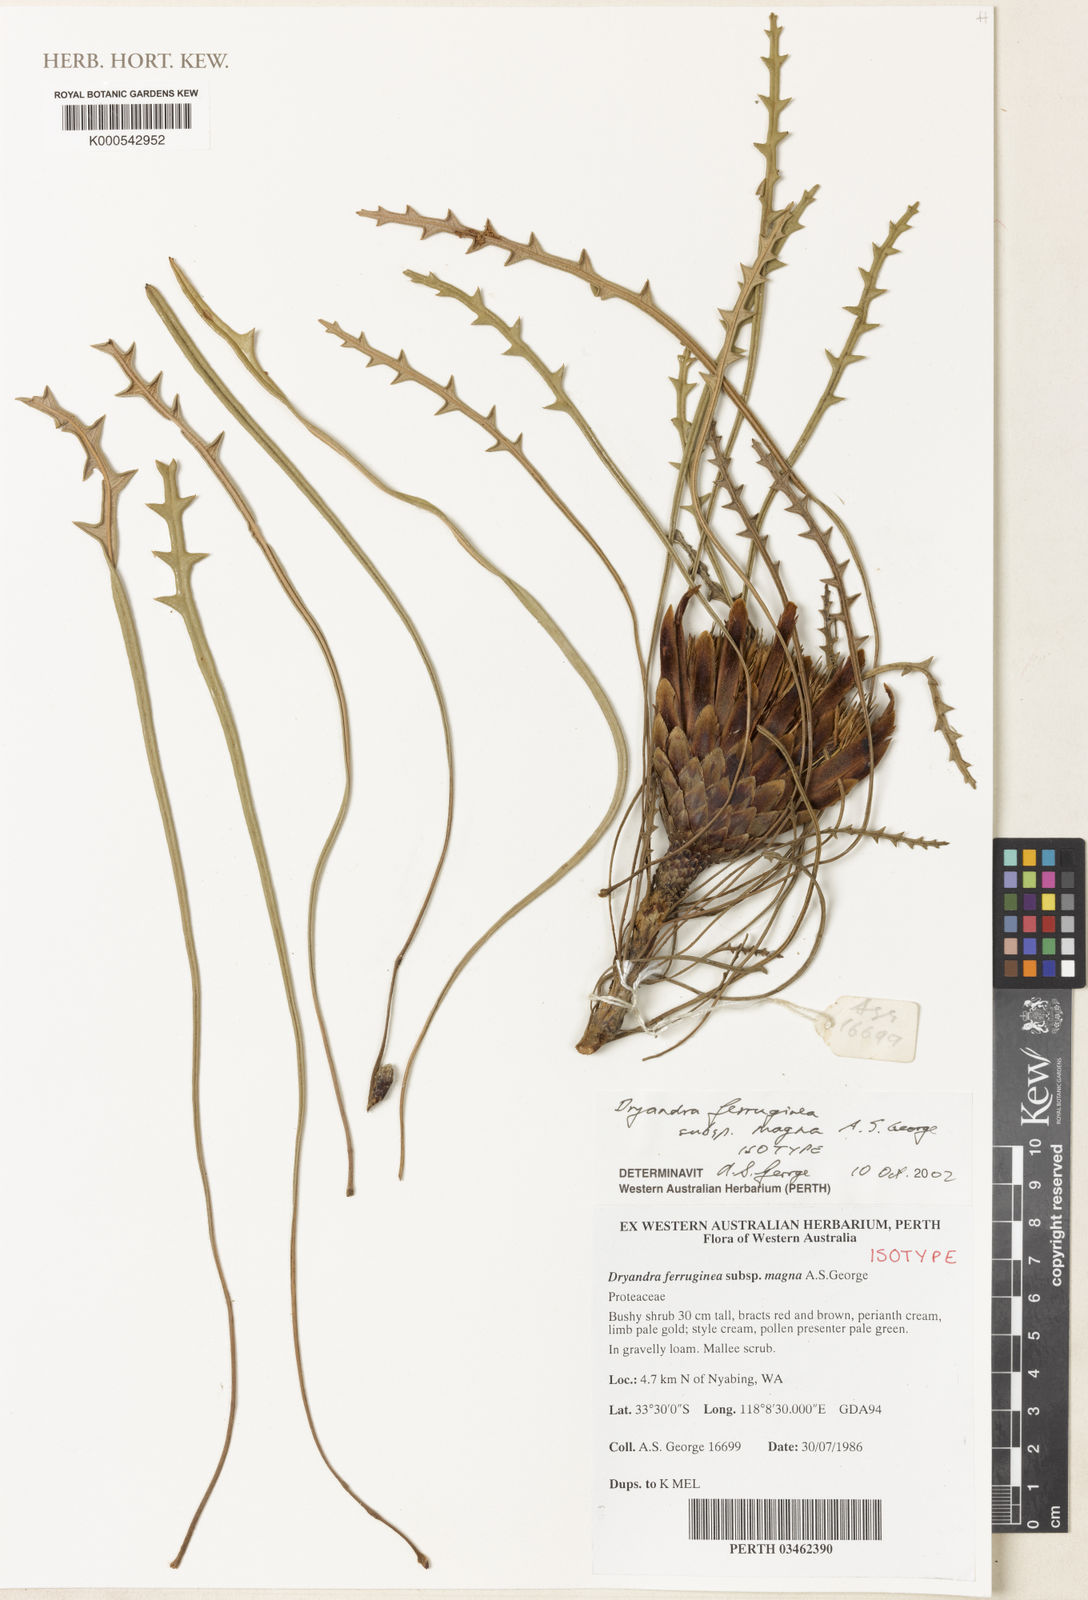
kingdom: Plantae
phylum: Tracheophyta
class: Magnoliopsida
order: Proteales
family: Proteaceae
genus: Banksia
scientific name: Banksia rufa
